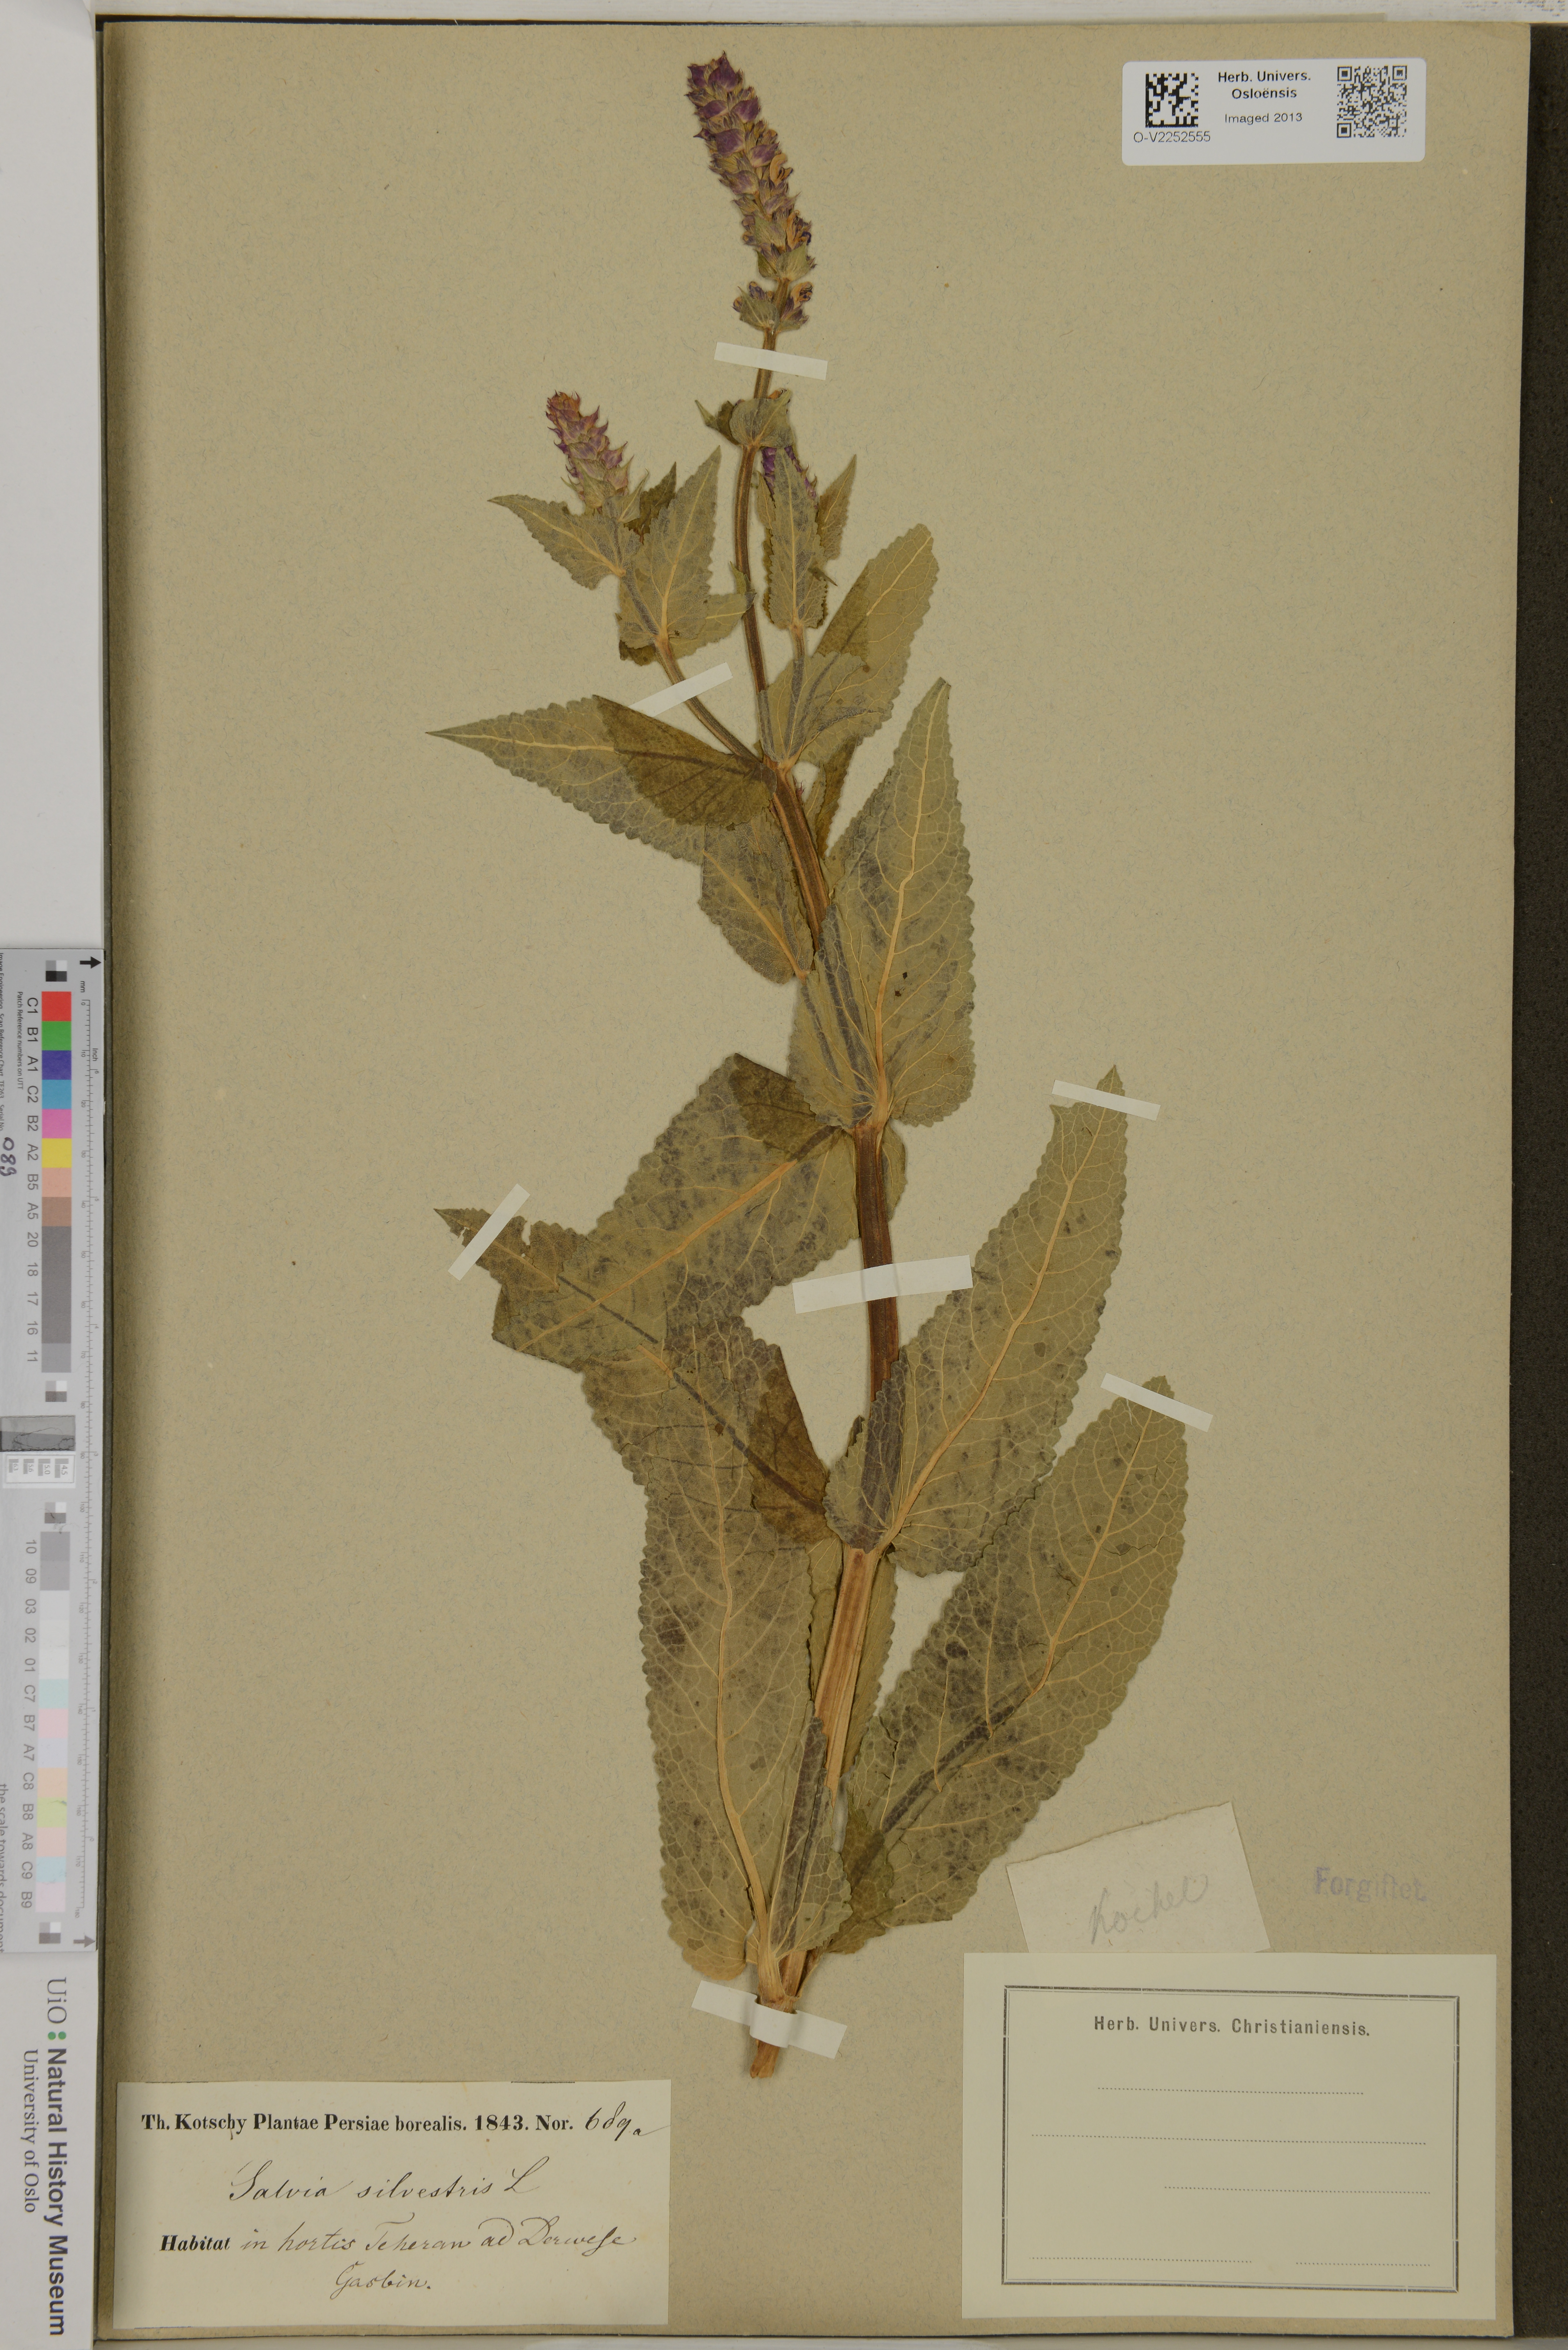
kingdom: Plantae
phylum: Tracheophyta
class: Magnoliopsida
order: Lamiales
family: Lamiaceae
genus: Salvia
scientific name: Salvia sylvestris
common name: Woodland sage
